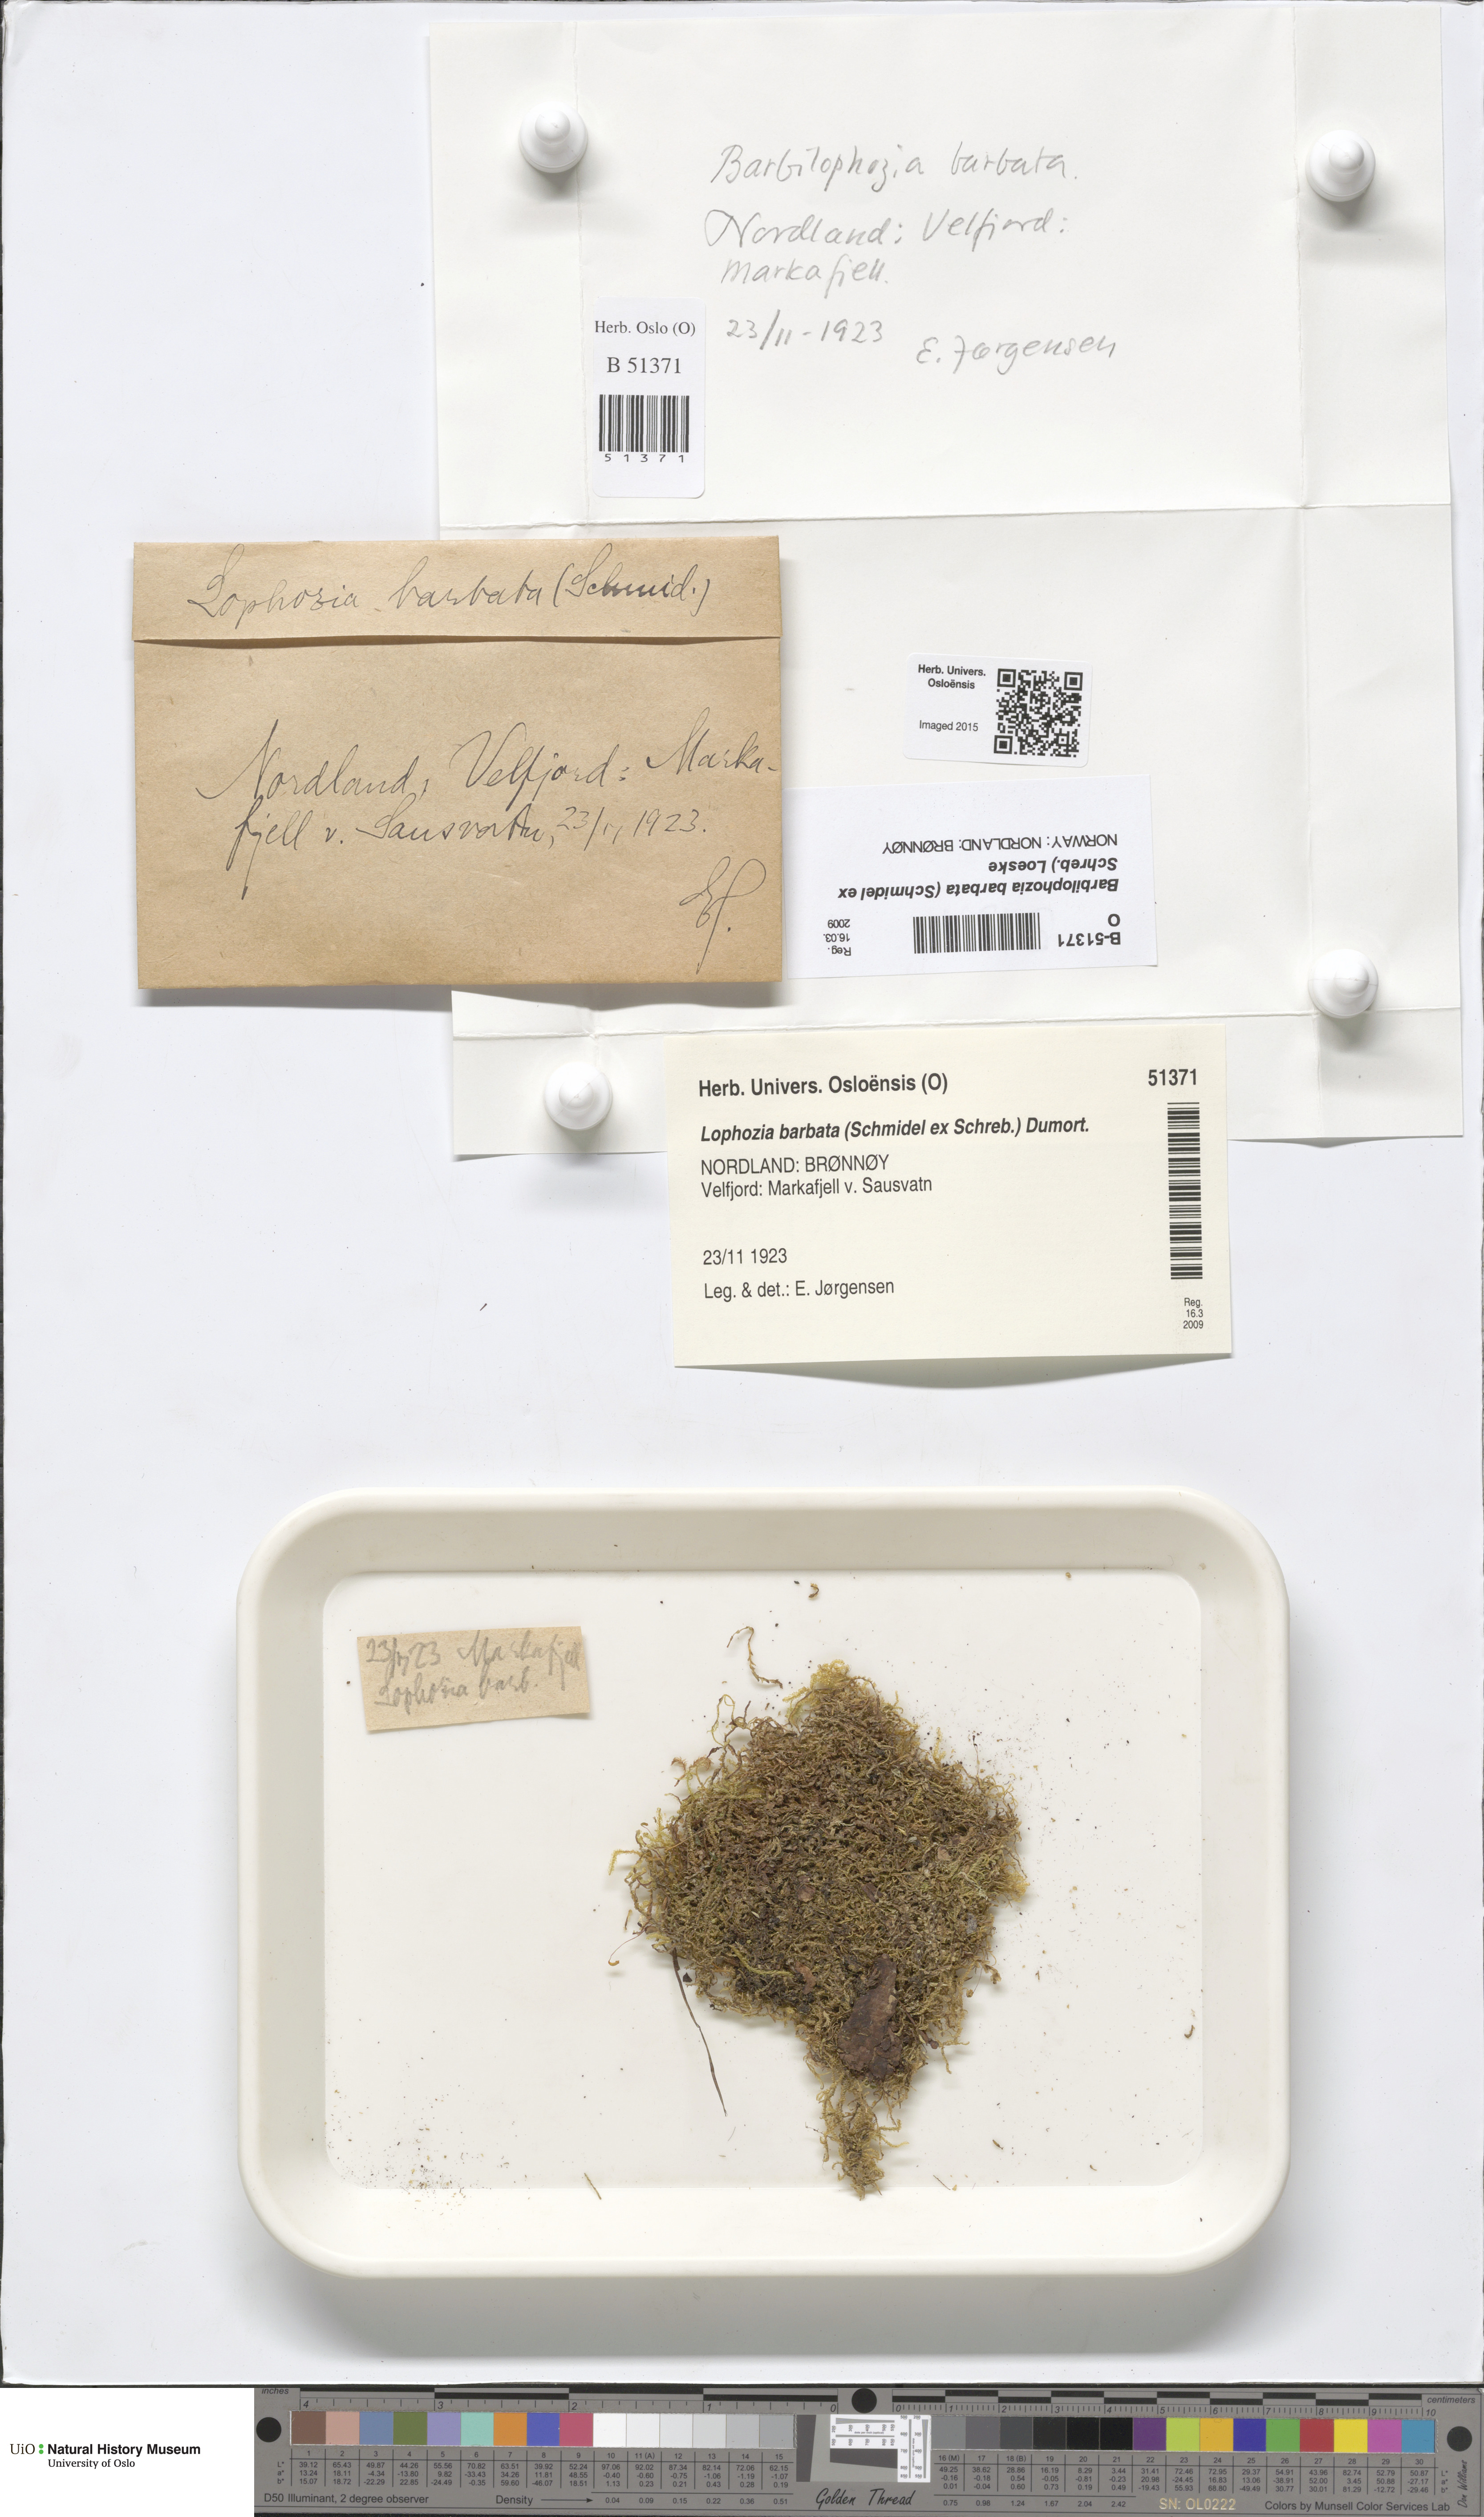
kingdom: Plantae
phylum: Marchantiophyta
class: Jungermanniopsida
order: Jungermanniales
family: Anastrophyllaceae
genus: Barbilophozia
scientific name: Barbilophozia barbata
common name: Bearded pawwort
